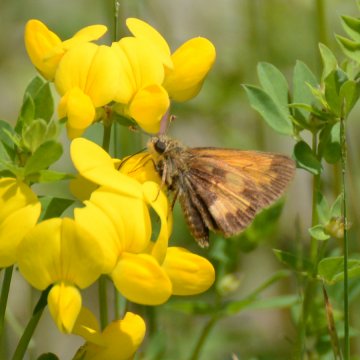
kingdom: Animalia
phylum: Arthropoda
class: Insecta
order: Lepidoptera
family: Hesperiidae
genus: Lon
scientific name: Lon hobomok
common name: Hobomok Skipper
